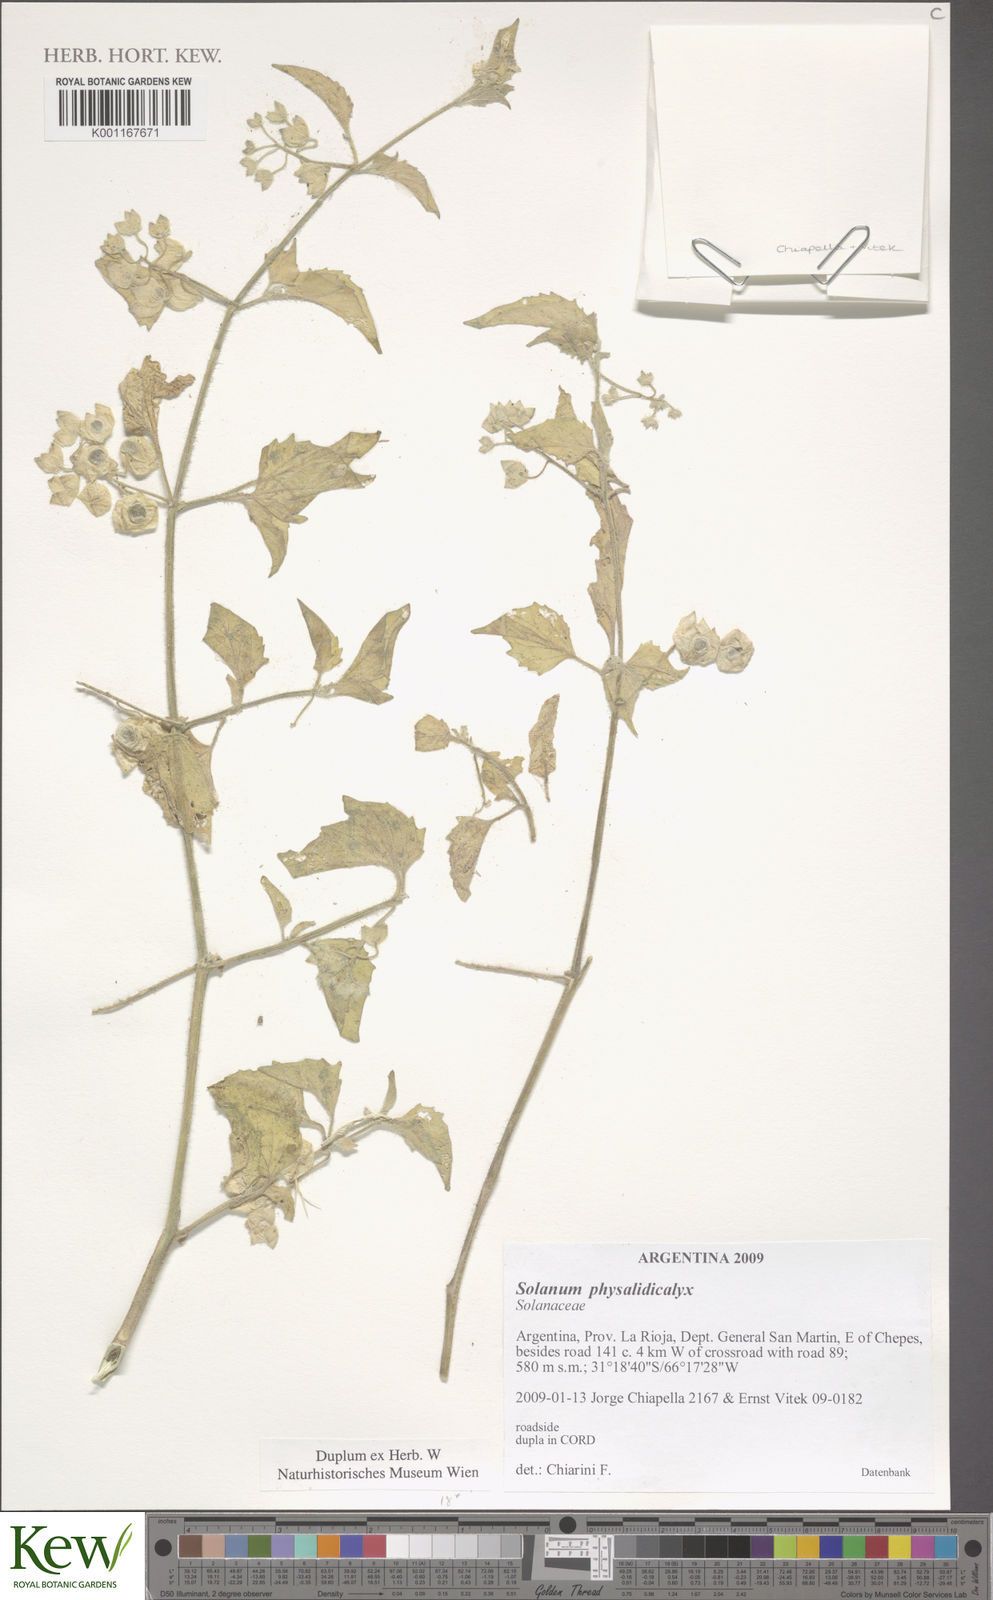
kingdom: Plantae
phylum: Tracheophyta
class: Magnoliopsida
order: Solanales
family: Solanaceae
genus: Solanum
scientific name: Solanum subsylvestre
